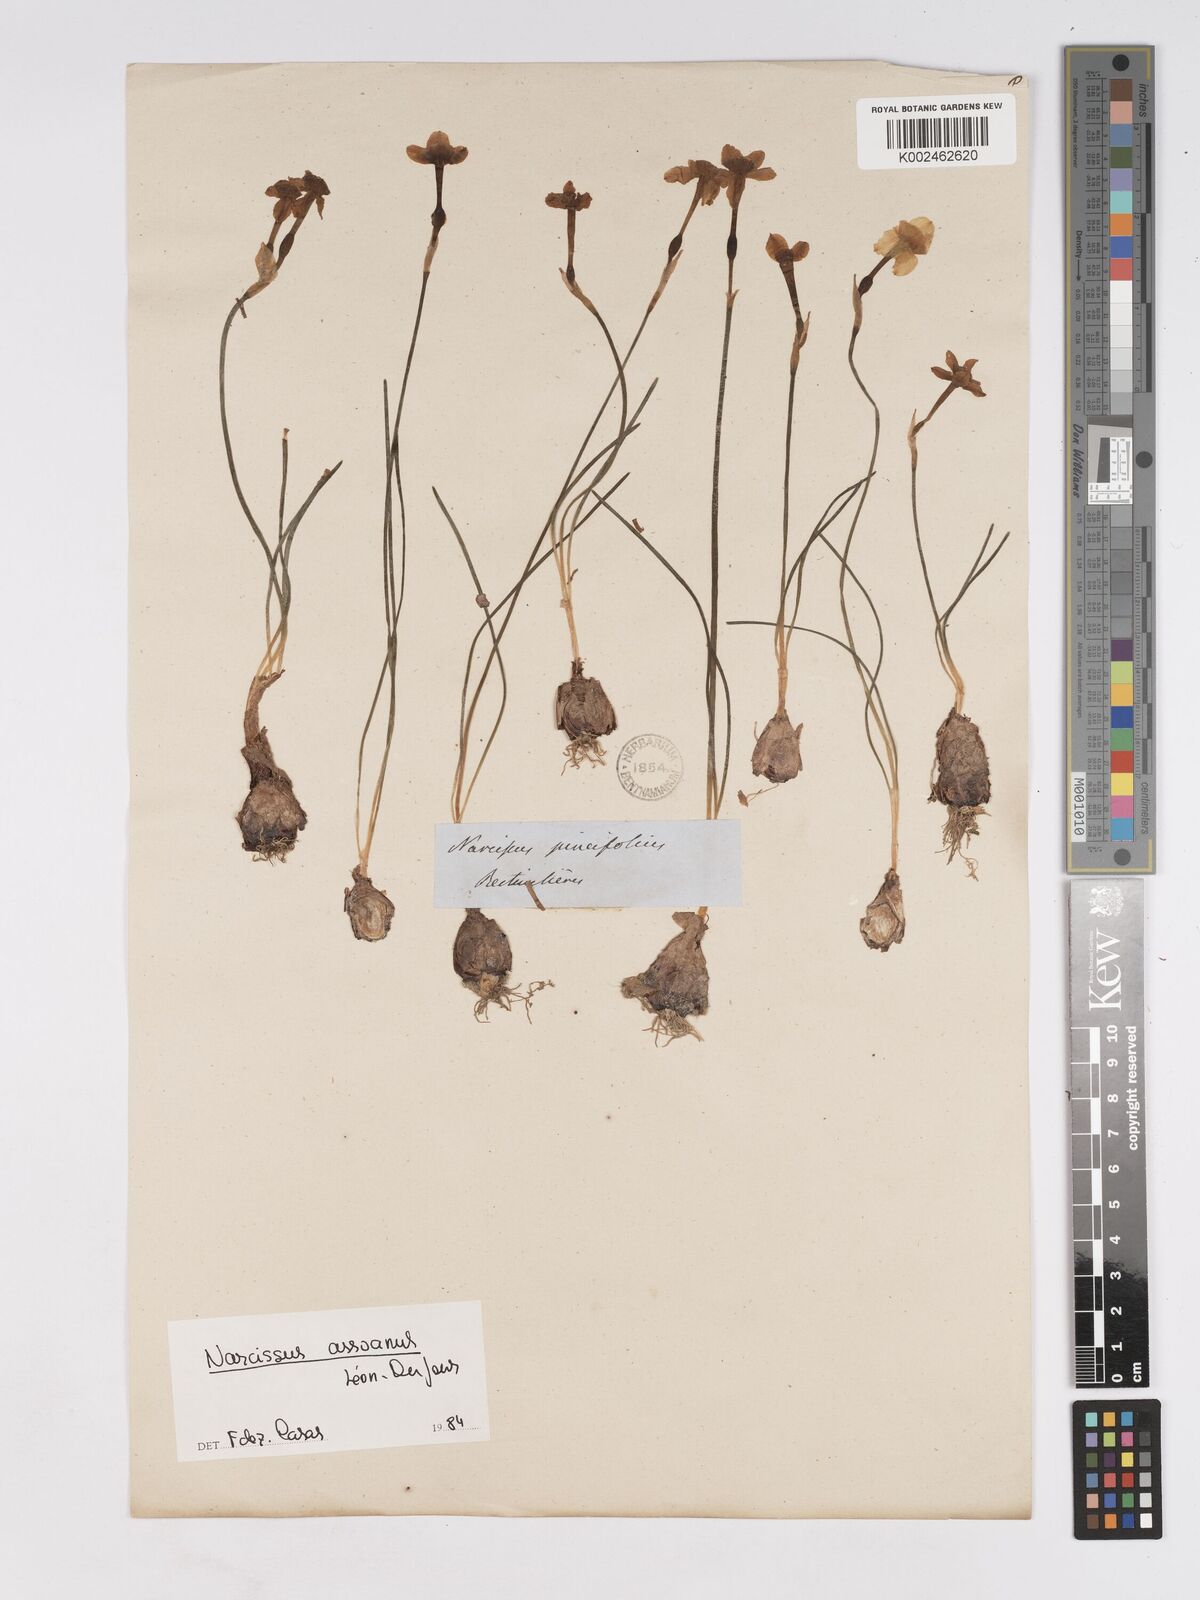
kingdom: Plantae
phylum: Tracheophyta
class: Liliopsida
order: Asparagales
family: Amaryllidaceae
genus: Narcissus
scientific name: Narcissus assoanus
